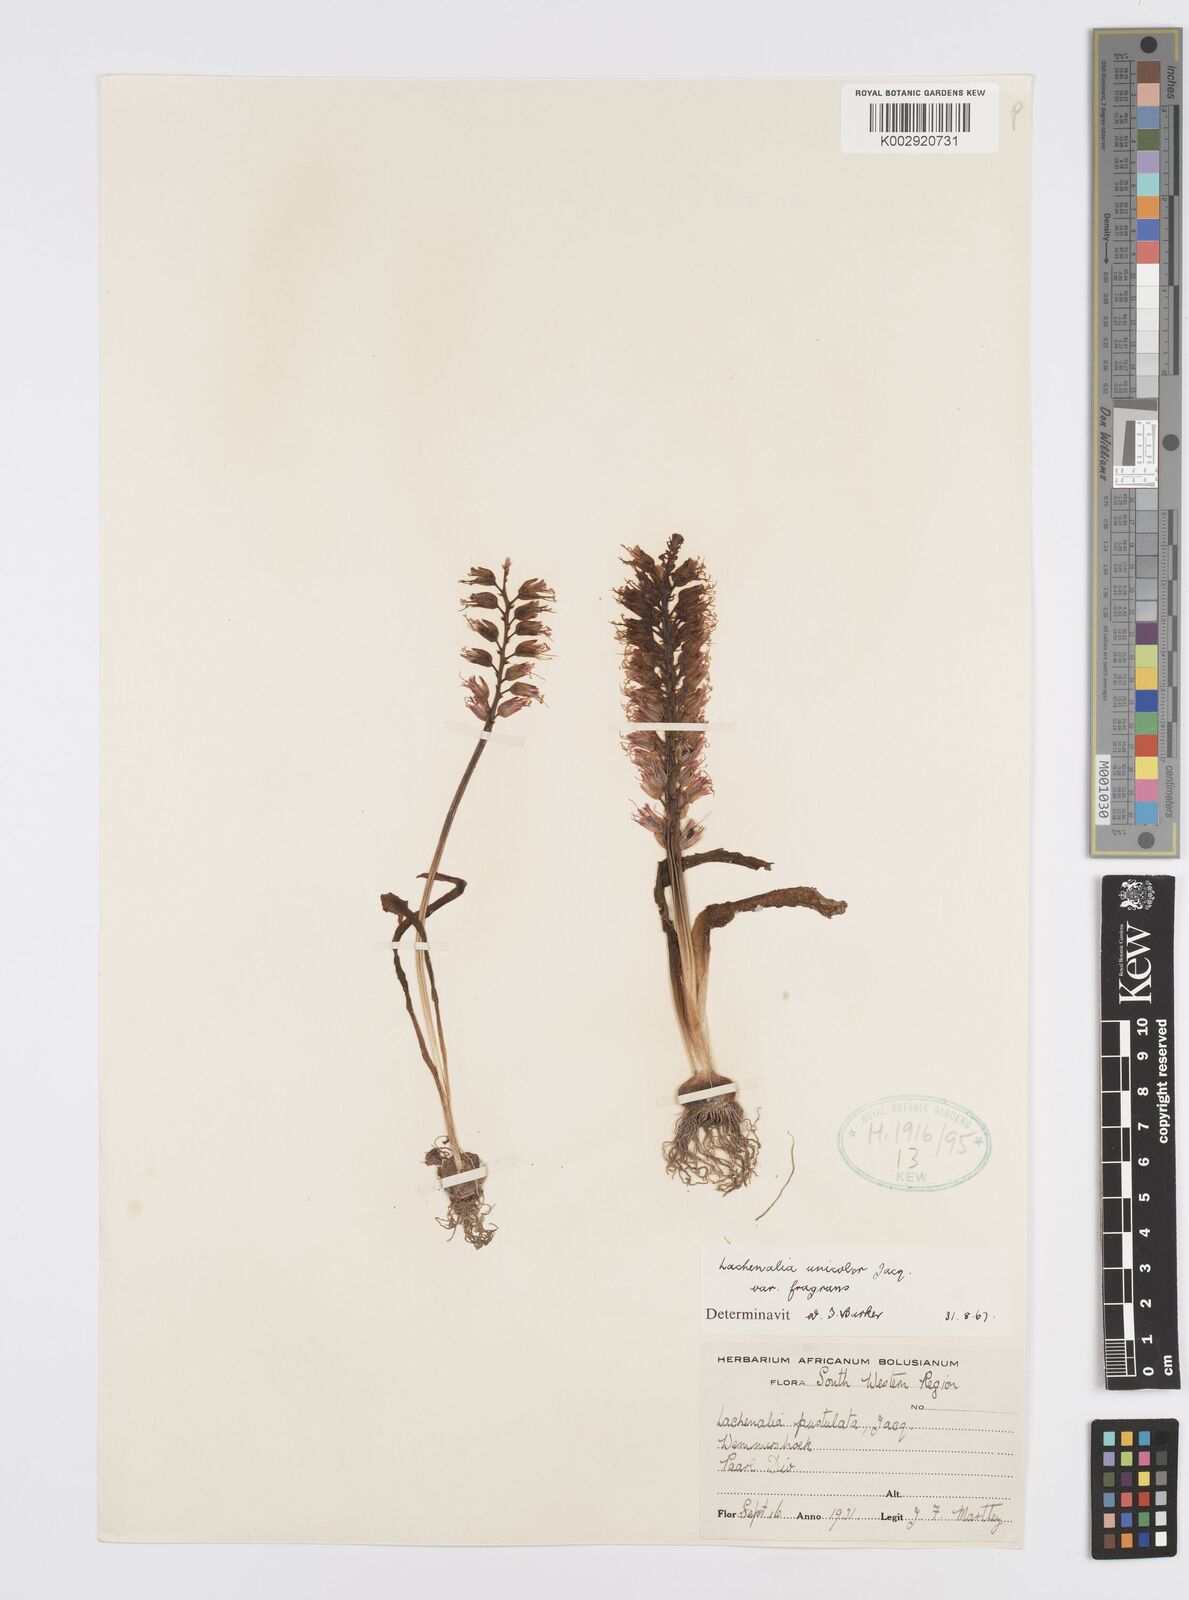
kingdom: Plantae
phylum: Tracheophyta
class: Liliopsida
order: Asparagales
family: Asparagaceae
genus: Lachenalia
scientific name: Lachenalia pallida
